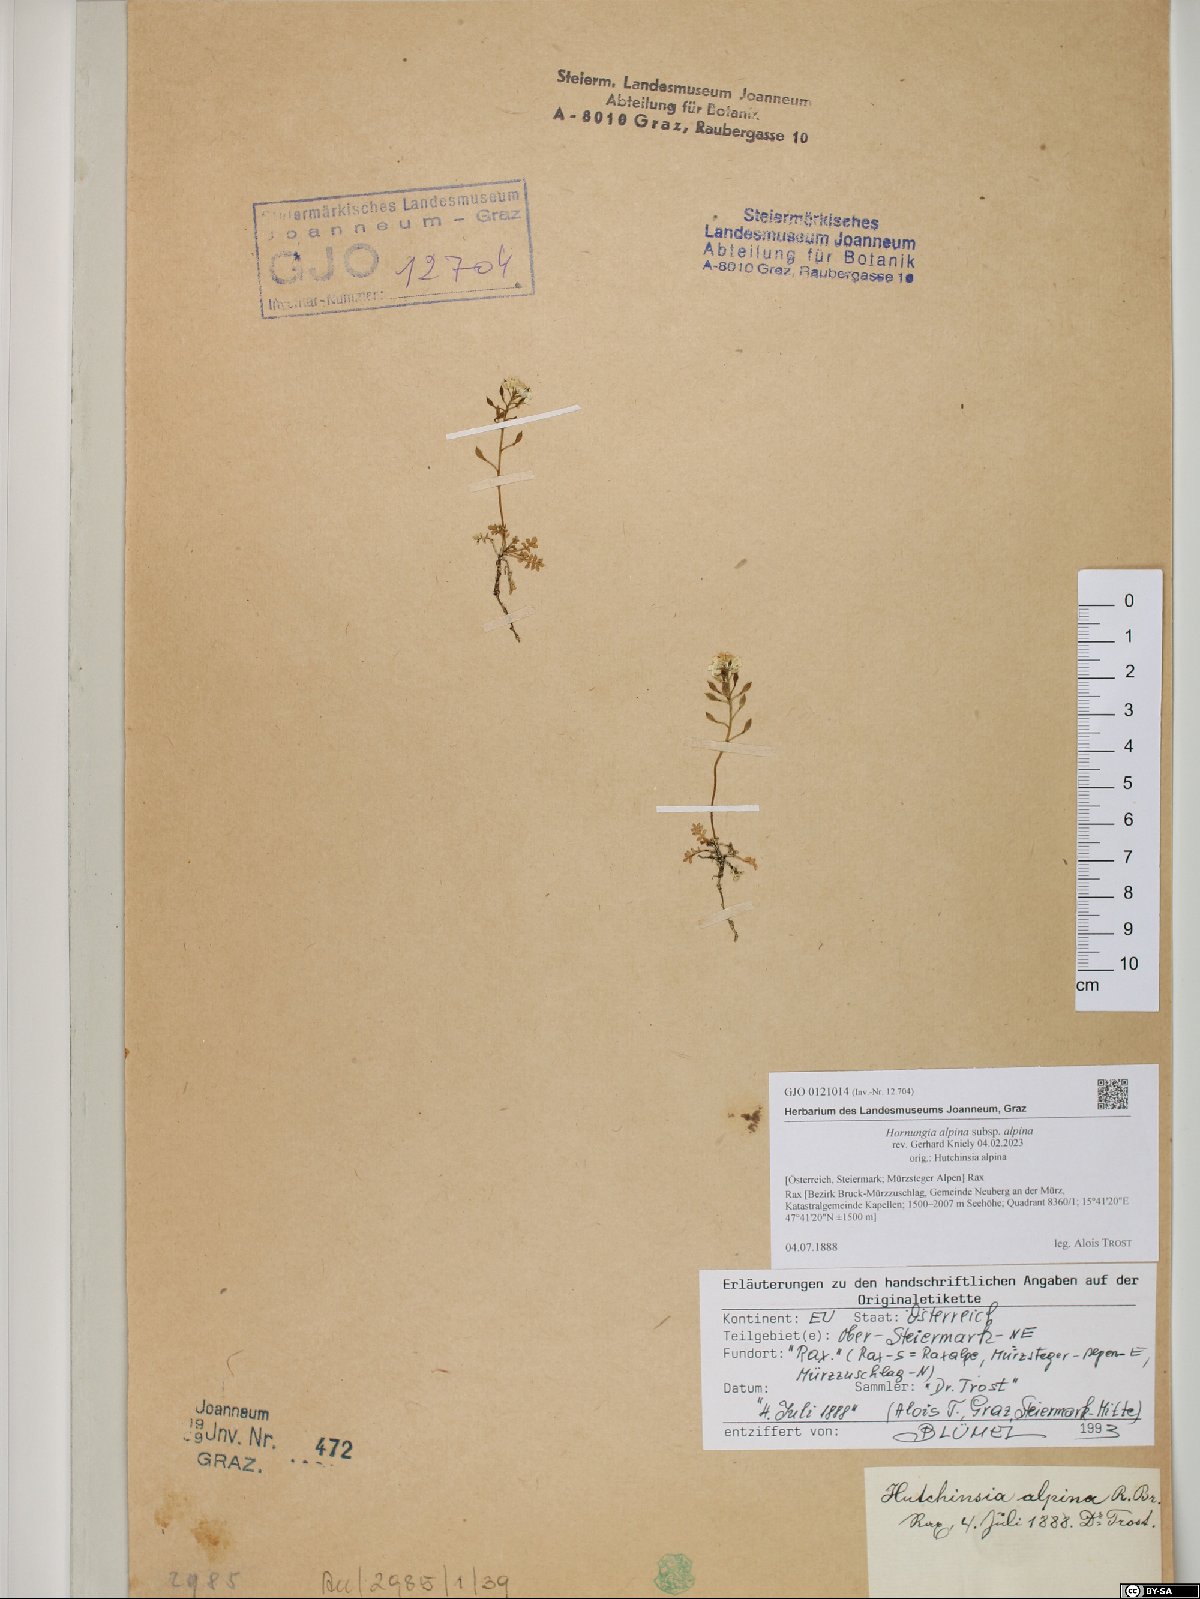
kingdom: Plantae
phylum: Tracheophyta
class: Magnoliopsida
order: Brassicales
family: Brassicaceae
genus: Hornungia
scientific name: Hornungia alpina
